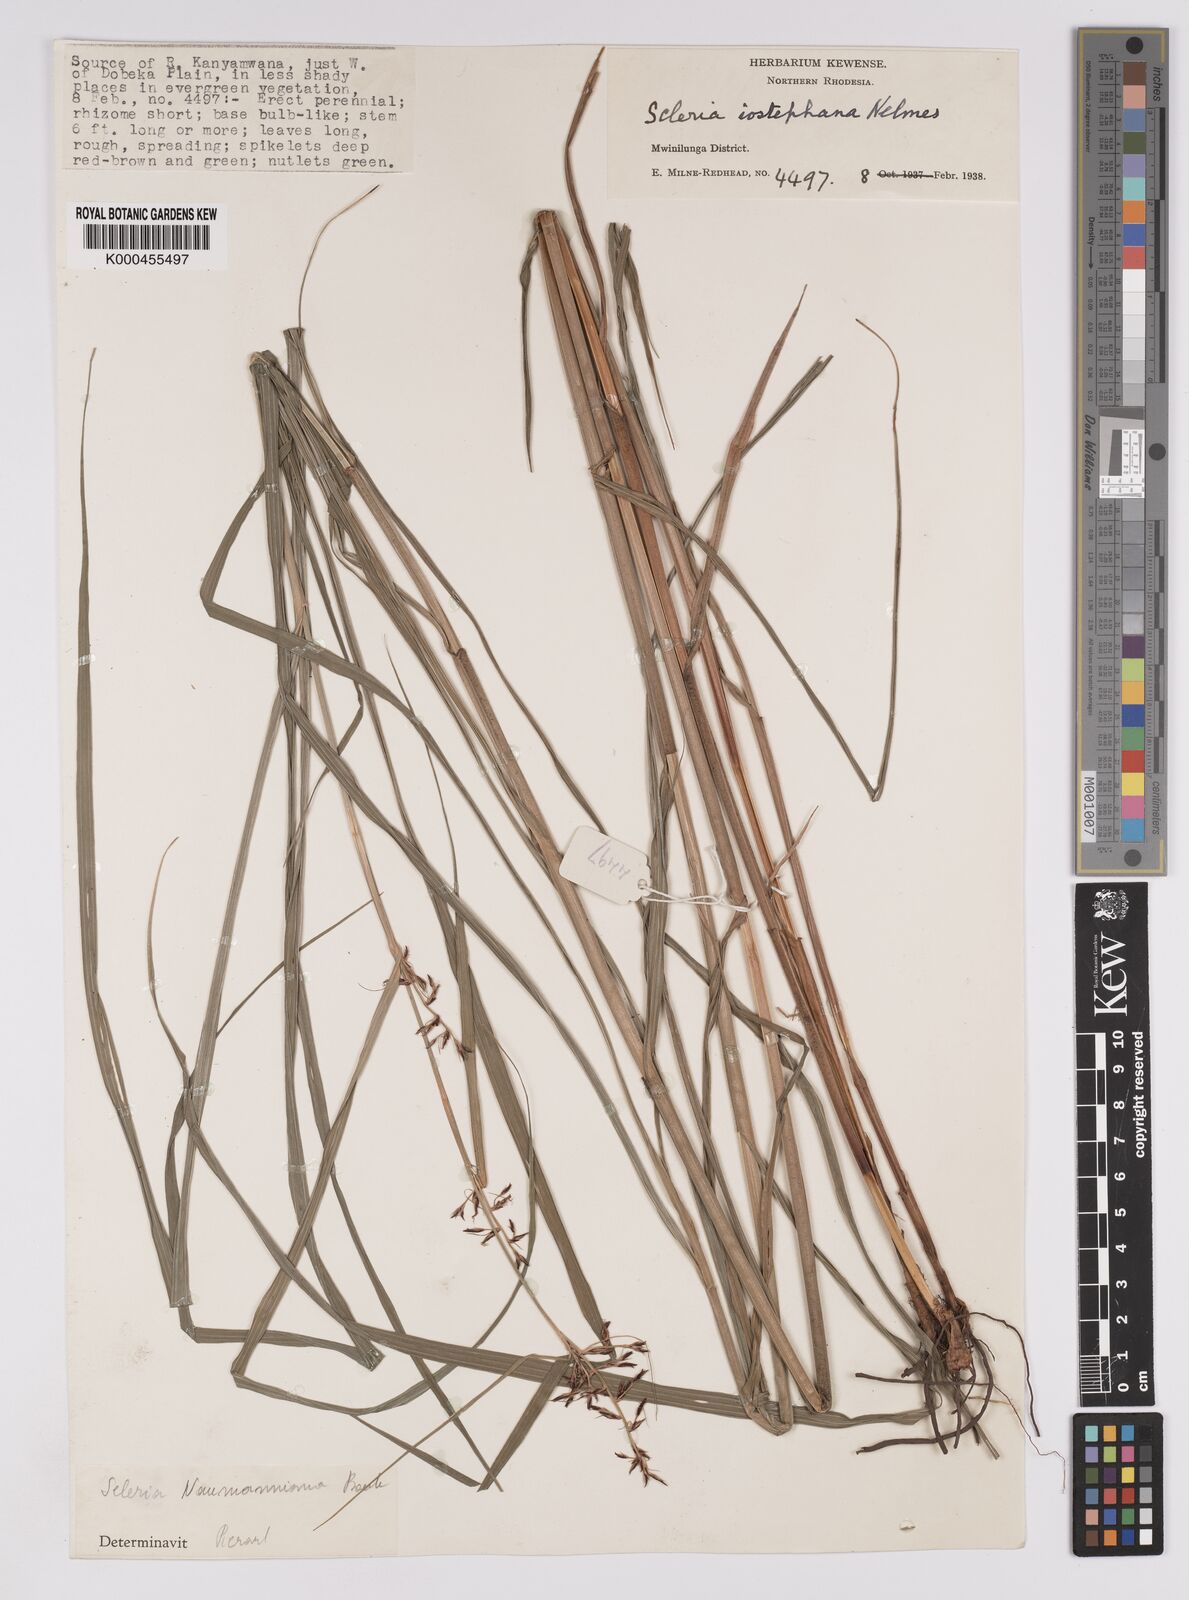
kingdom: Plantae
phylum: Tracheophyta
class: Liliopsida
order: Poales
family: Cyperaceae
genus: Scleria
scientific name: Scleria iostephana
